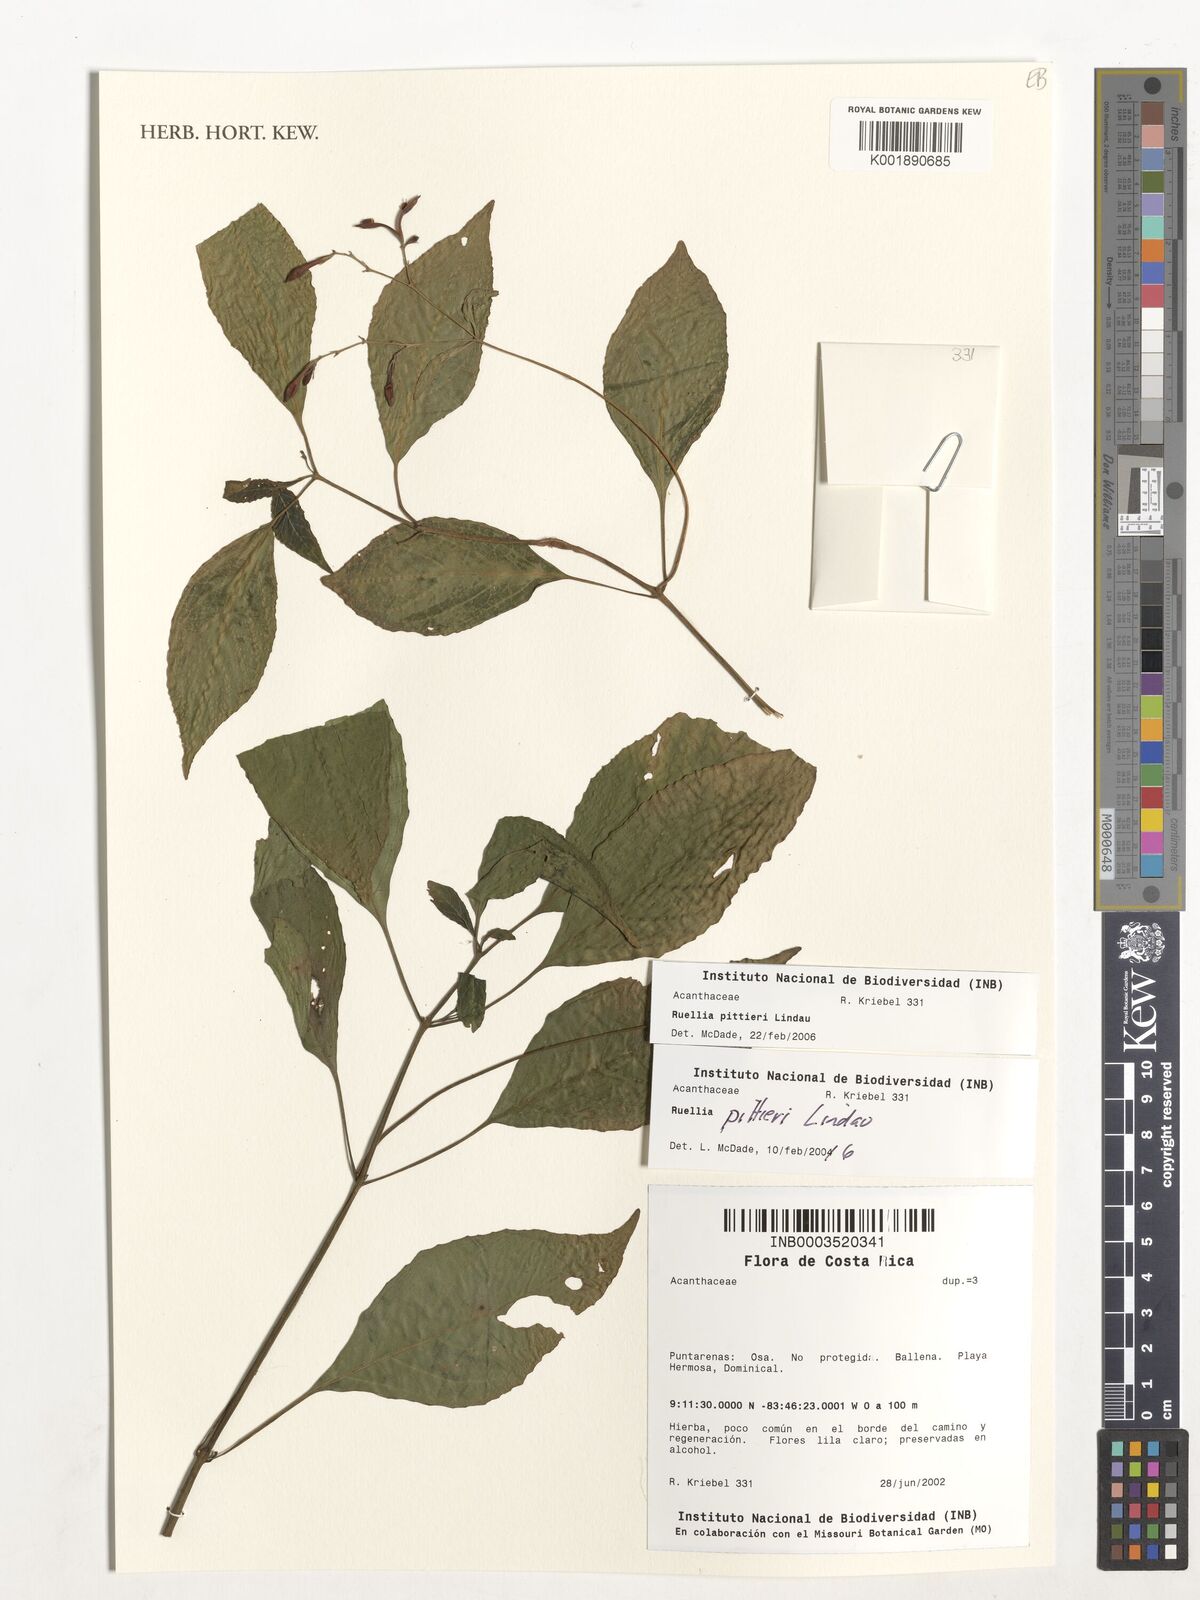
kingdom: Plantae
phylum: Tracheophyta
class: Magnoliopsida
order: Lamiales
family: Acanthaceae
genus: Ruellia
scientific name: Ruellia pittieri
